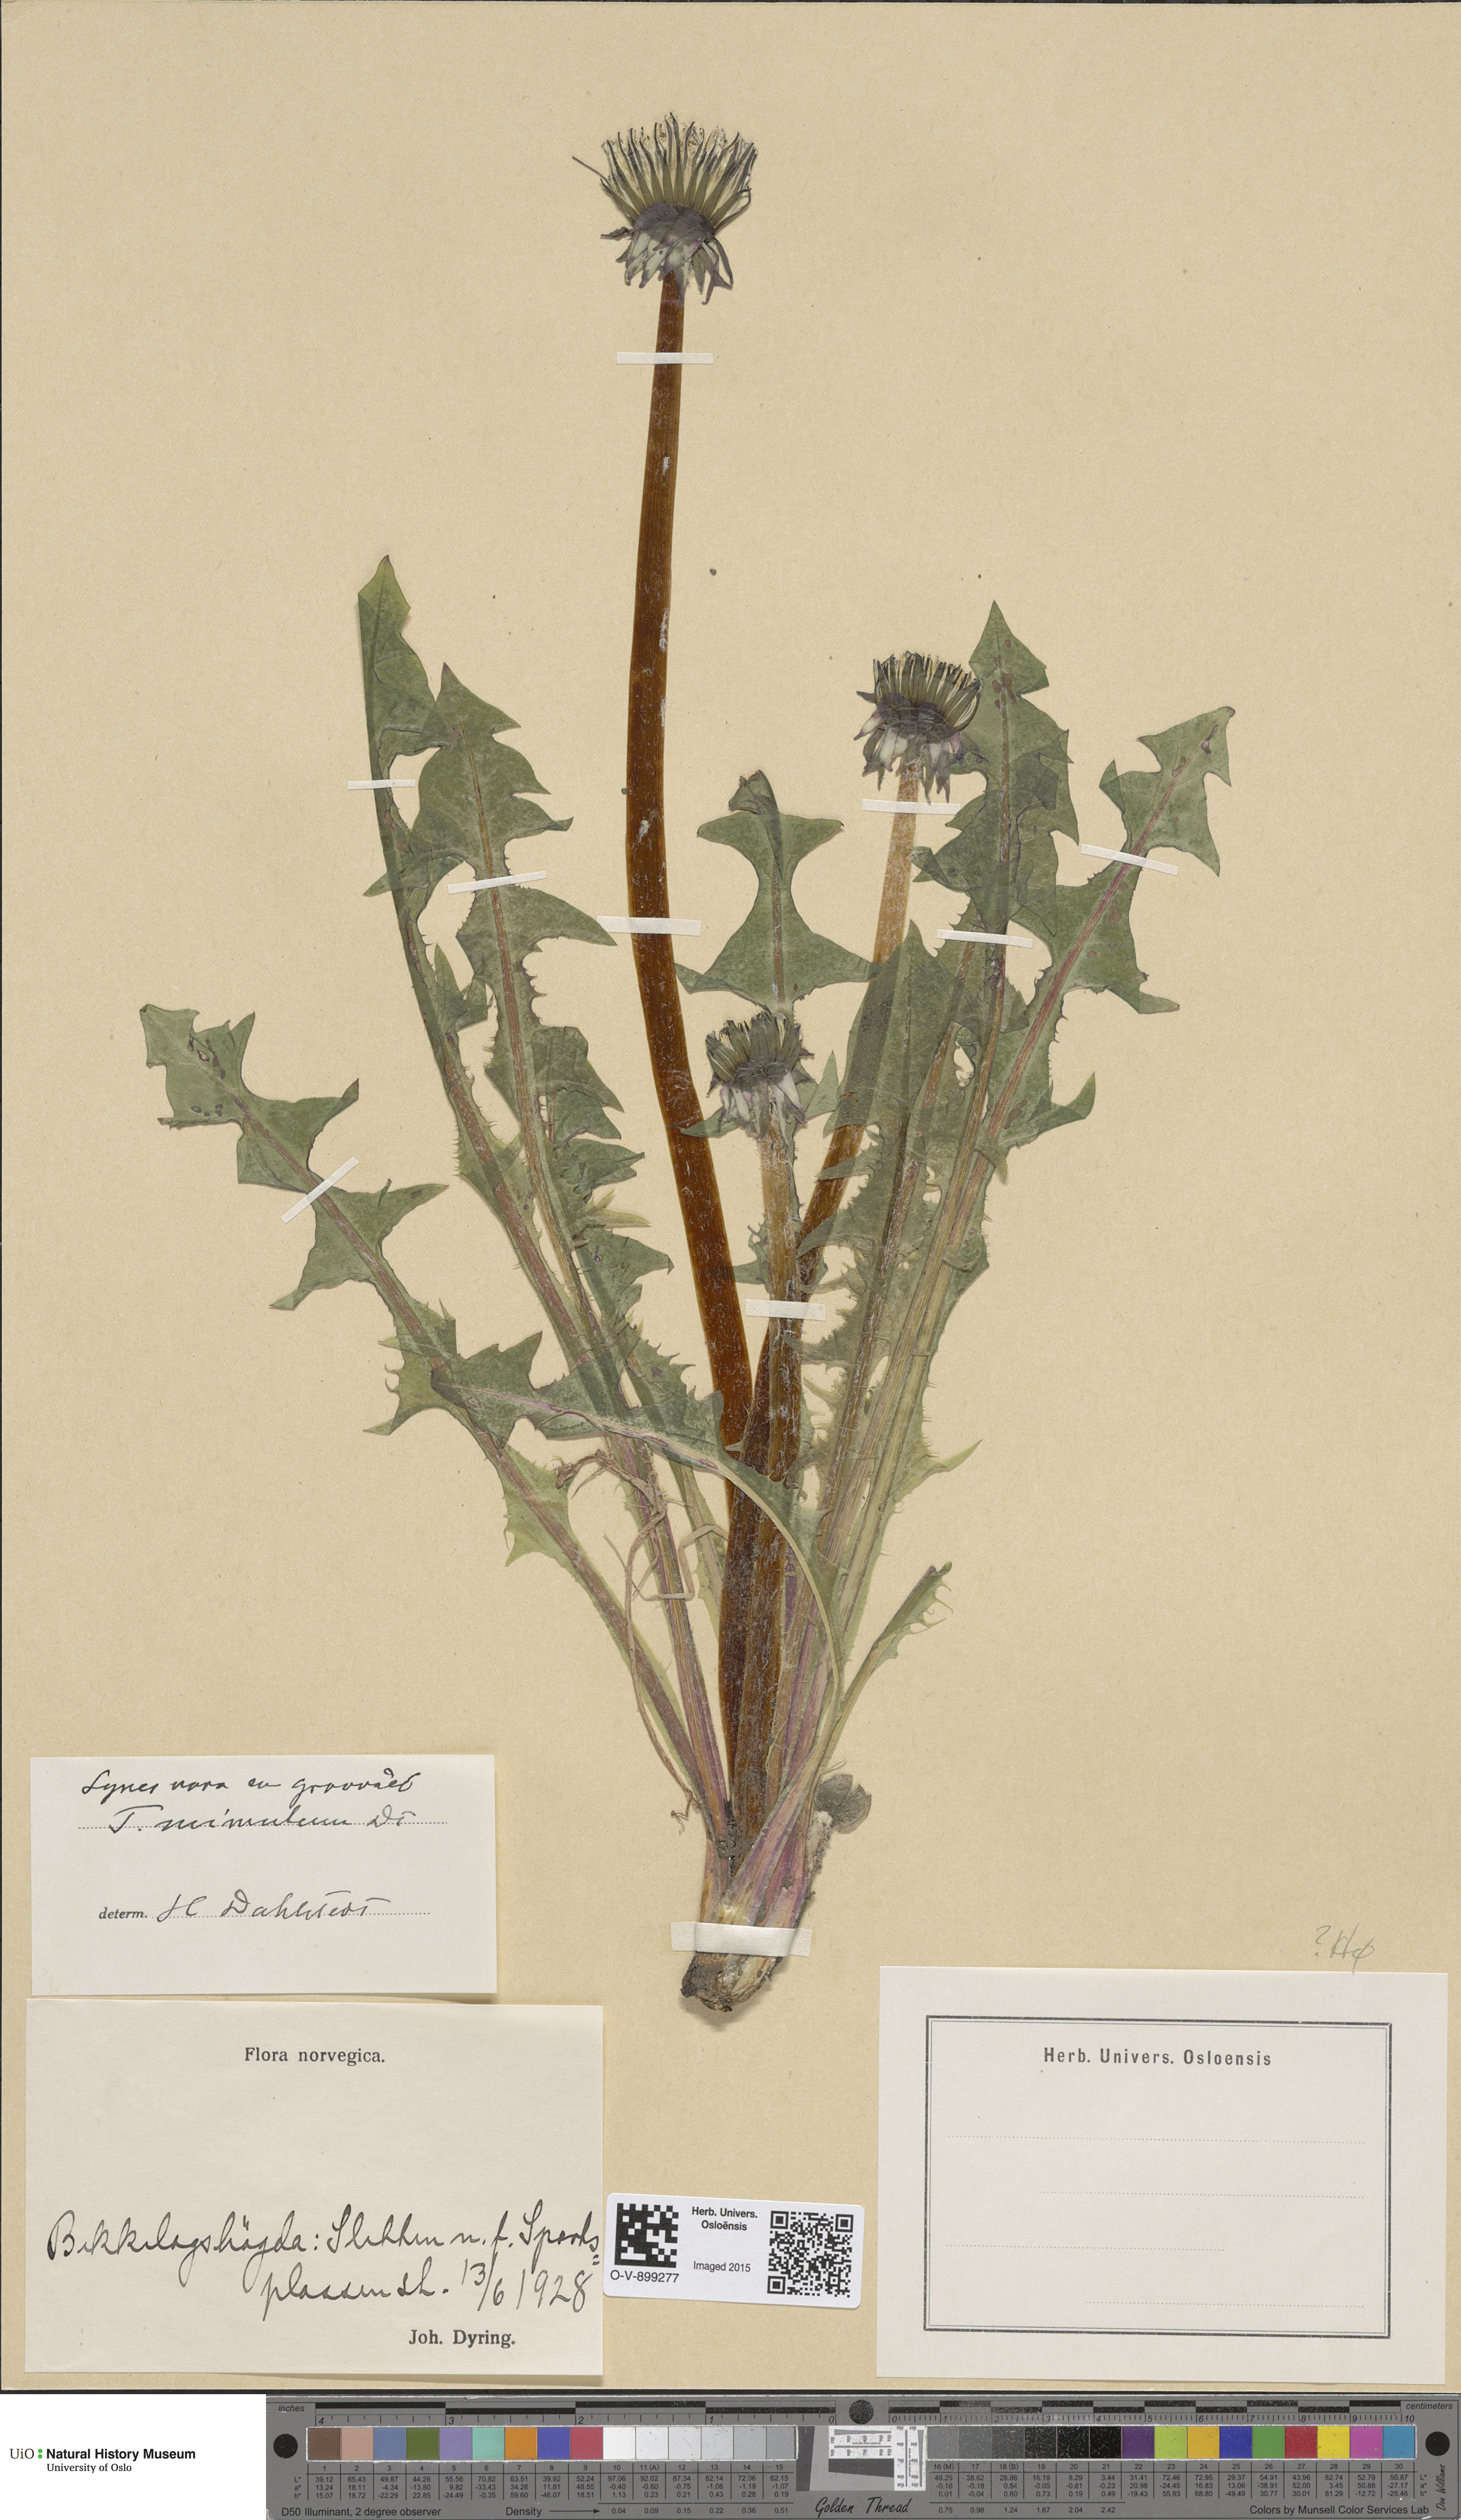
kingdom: Plantae
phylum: Tracheophyta
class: Magnoliopsida
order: Asterales
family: Asteraceae
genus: Taraxacum
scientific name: Taraxacum mimulum
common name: Sharp-lobed dandelion
